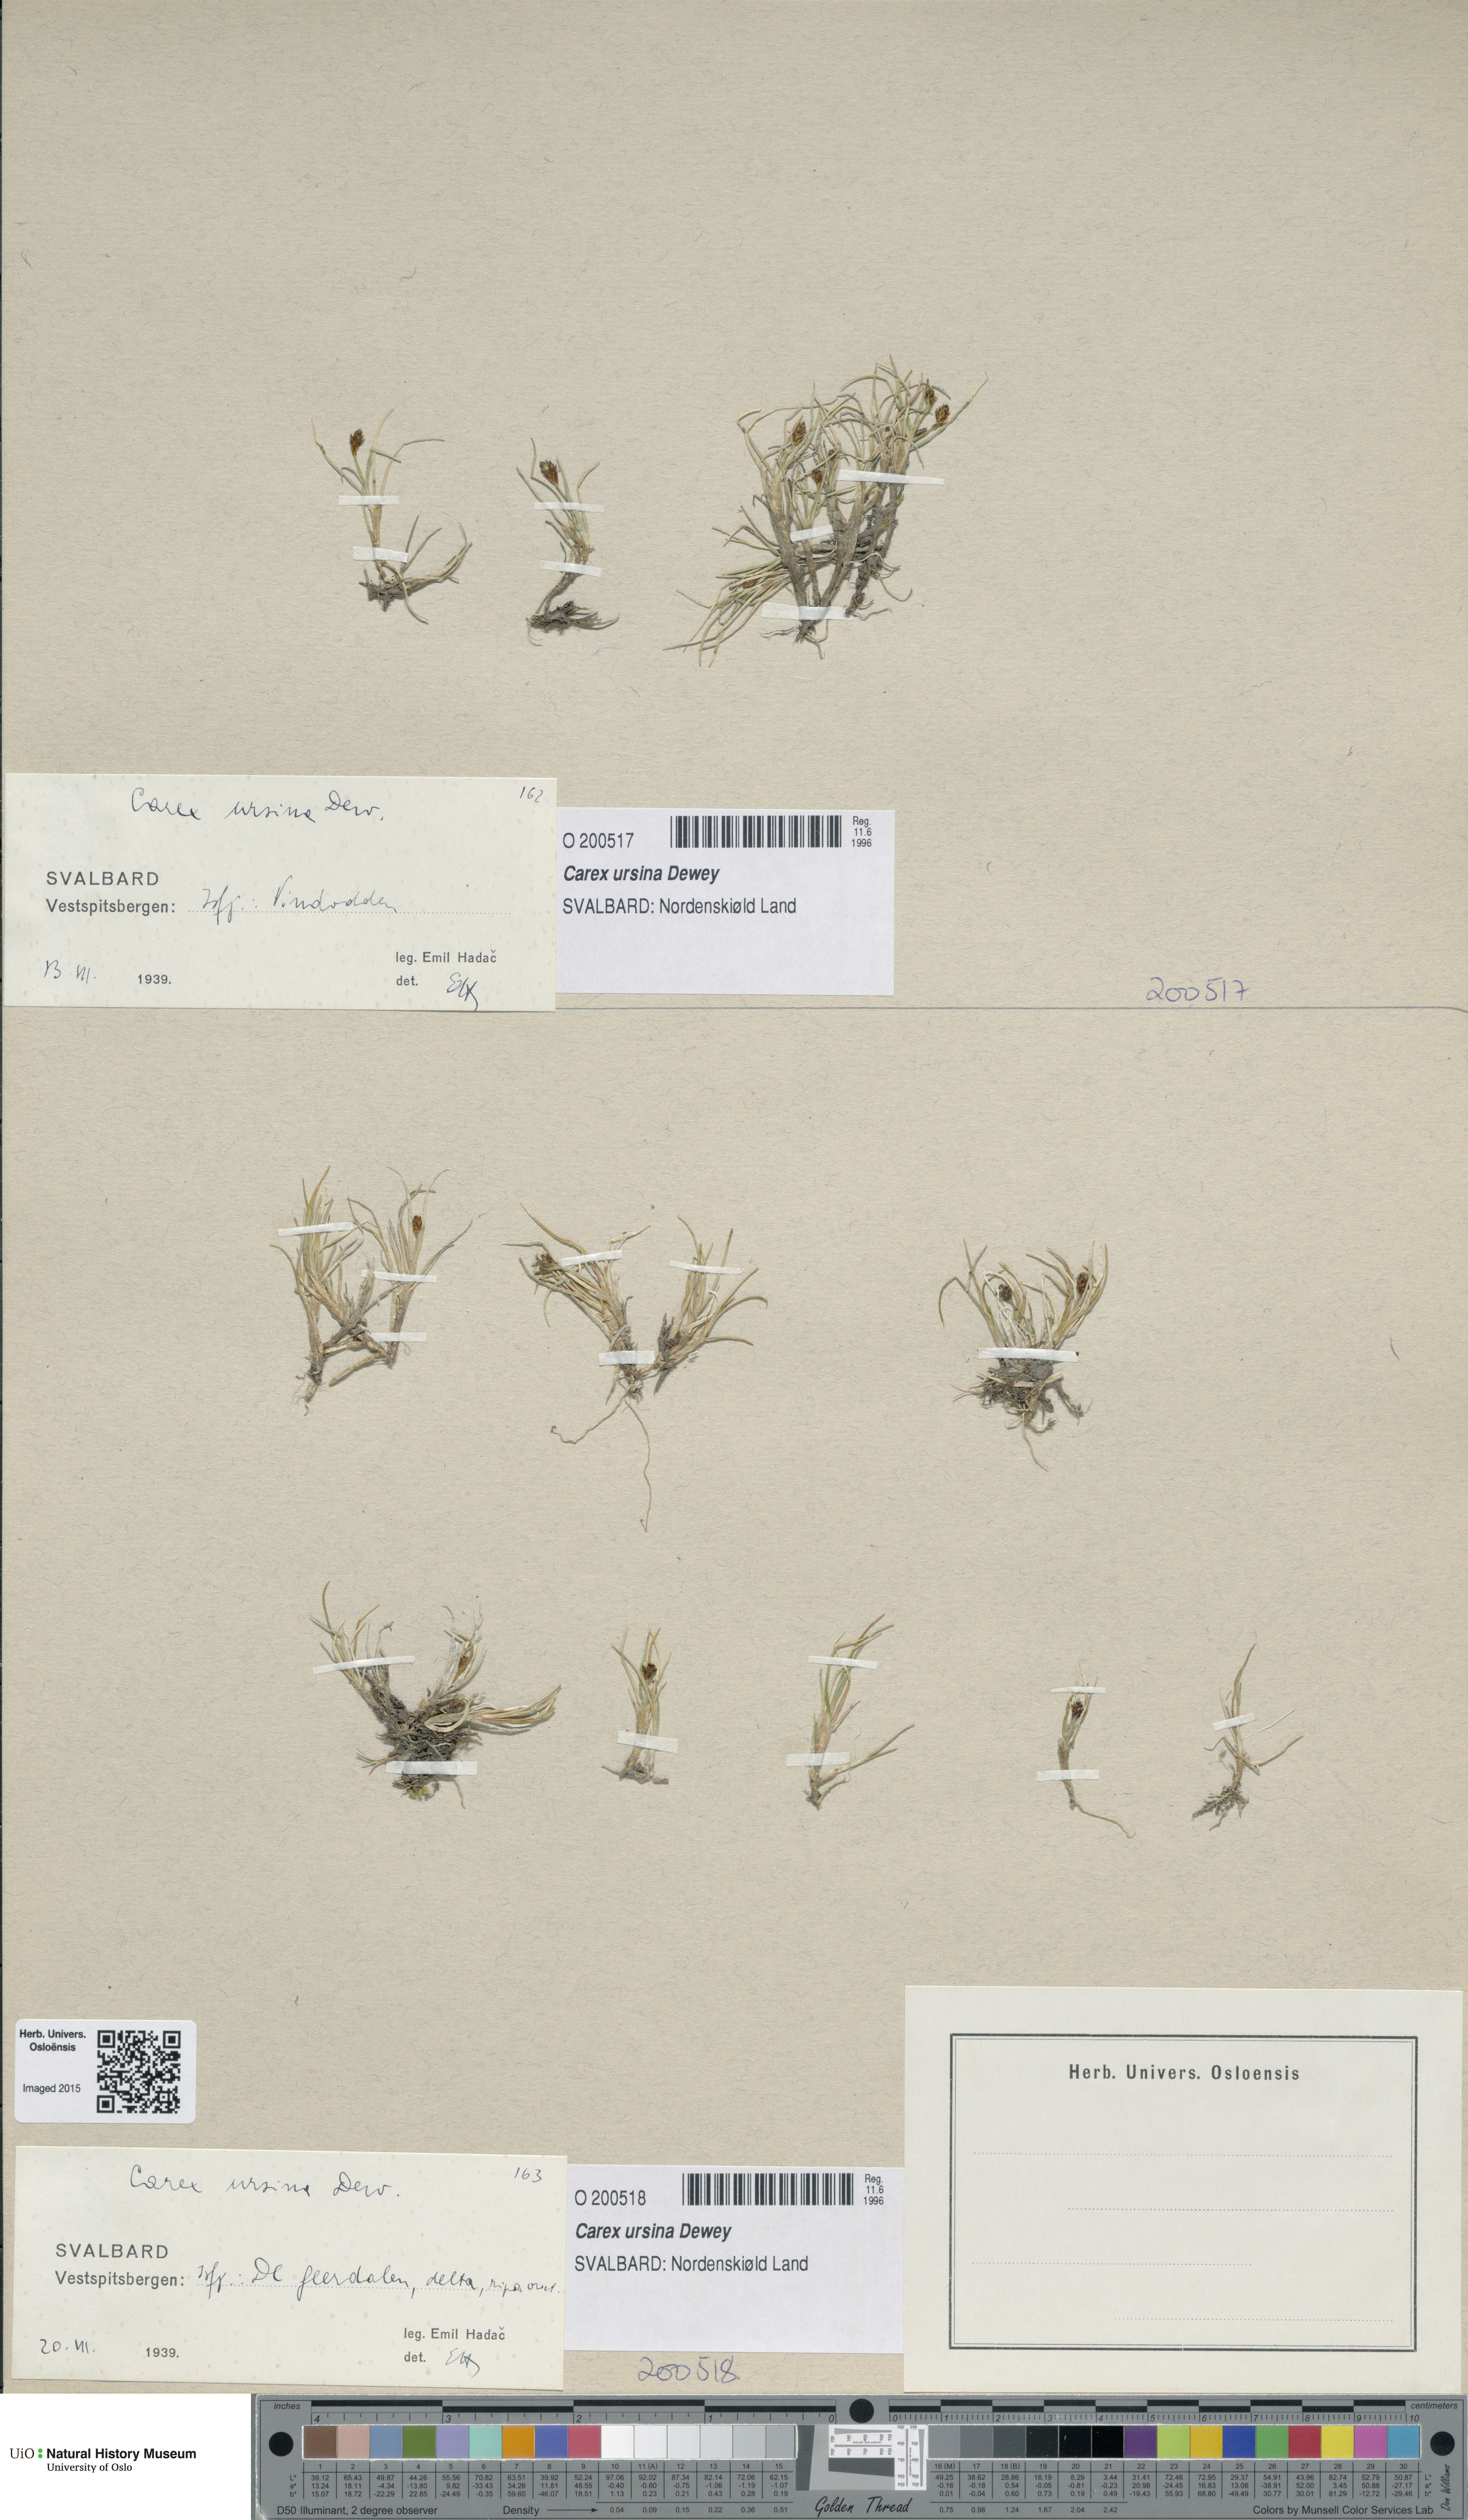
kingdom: Plantae
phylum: Tracheophyta
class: Liliopsida
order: Poales
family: Cyperaceae
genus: Carex
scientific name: Carex ursina
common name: Bear sedge
